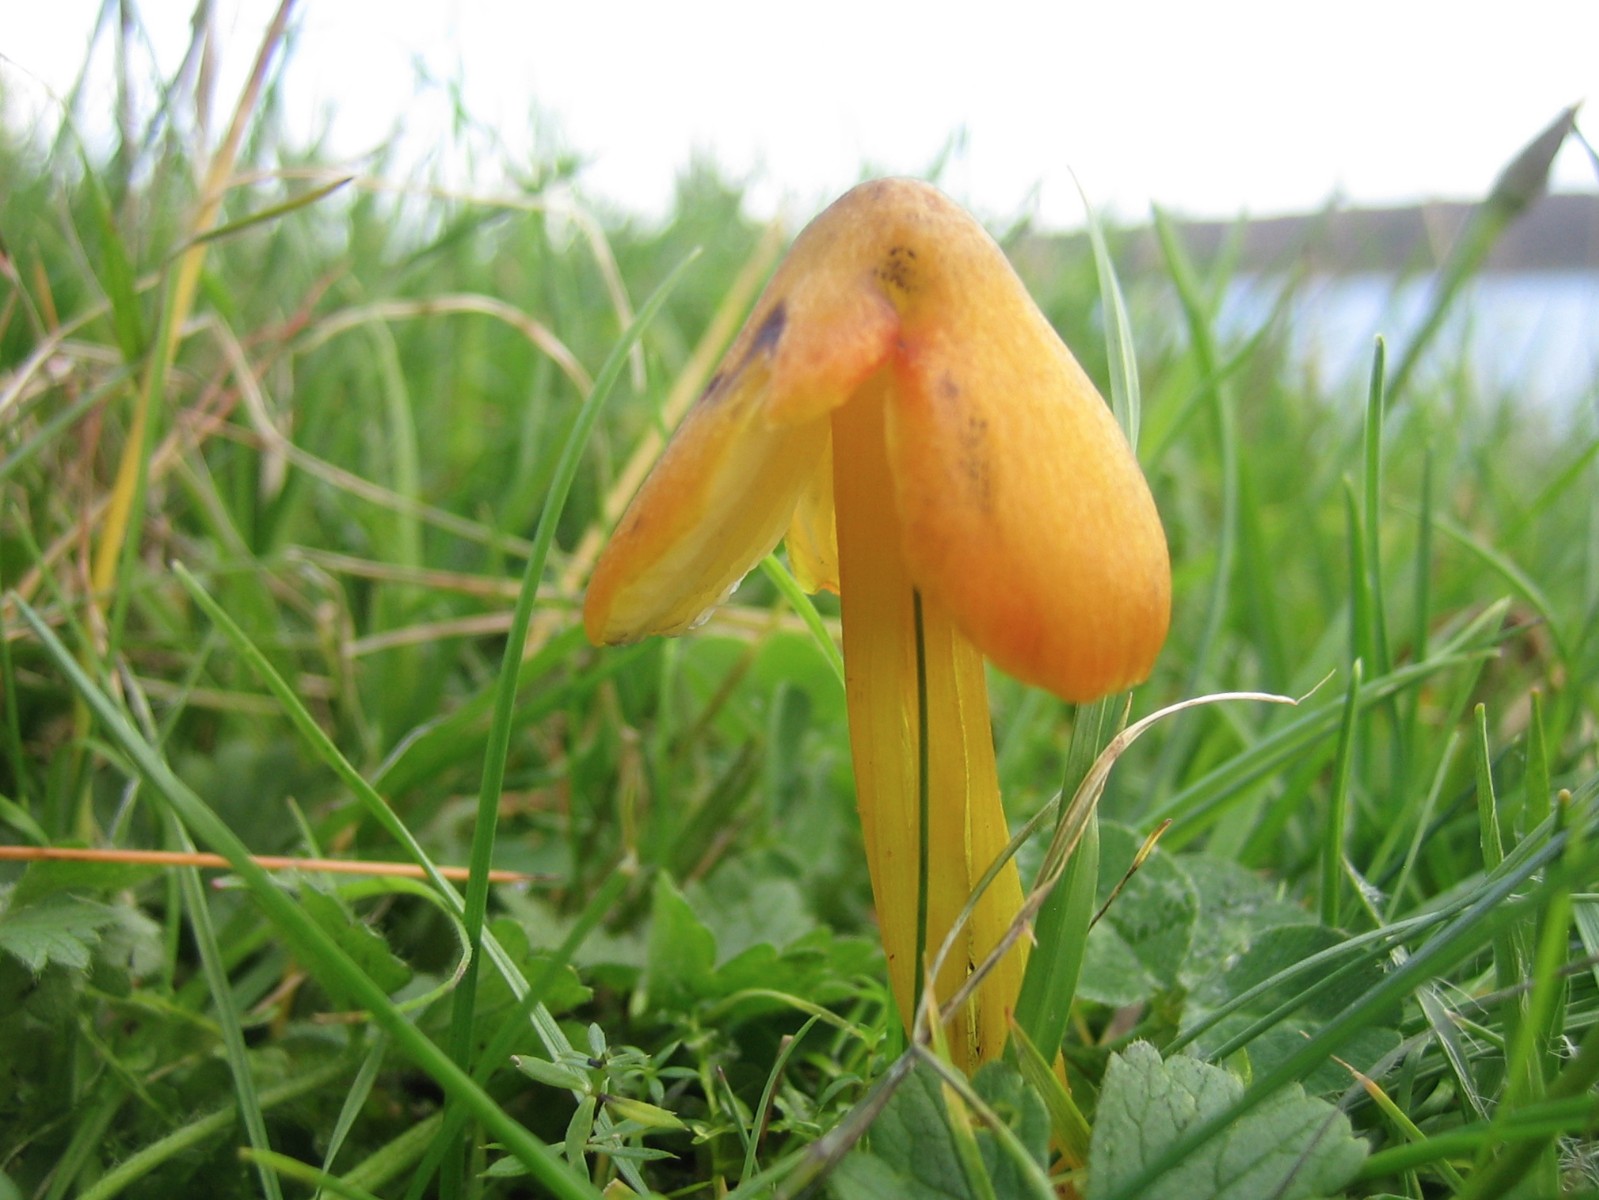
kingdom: Fungi
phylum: Basidiomycota
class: Agaricomycetes
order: Agaricales
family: Hygrophoraceae
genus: Hygrocybe
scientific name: Hygrocybe conica
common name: kegle-vokshat
